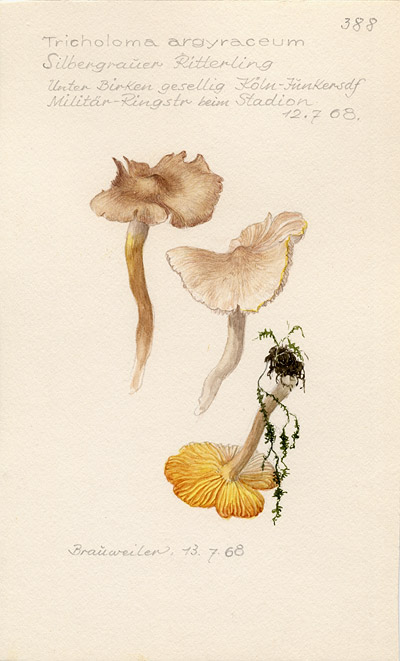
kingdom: Fungi
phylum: Basidiomycota
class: Agaricomycetes
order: Agaricales
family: Tricholomataceae
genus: Tricholoma
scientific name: Tricholoma argyraceum
